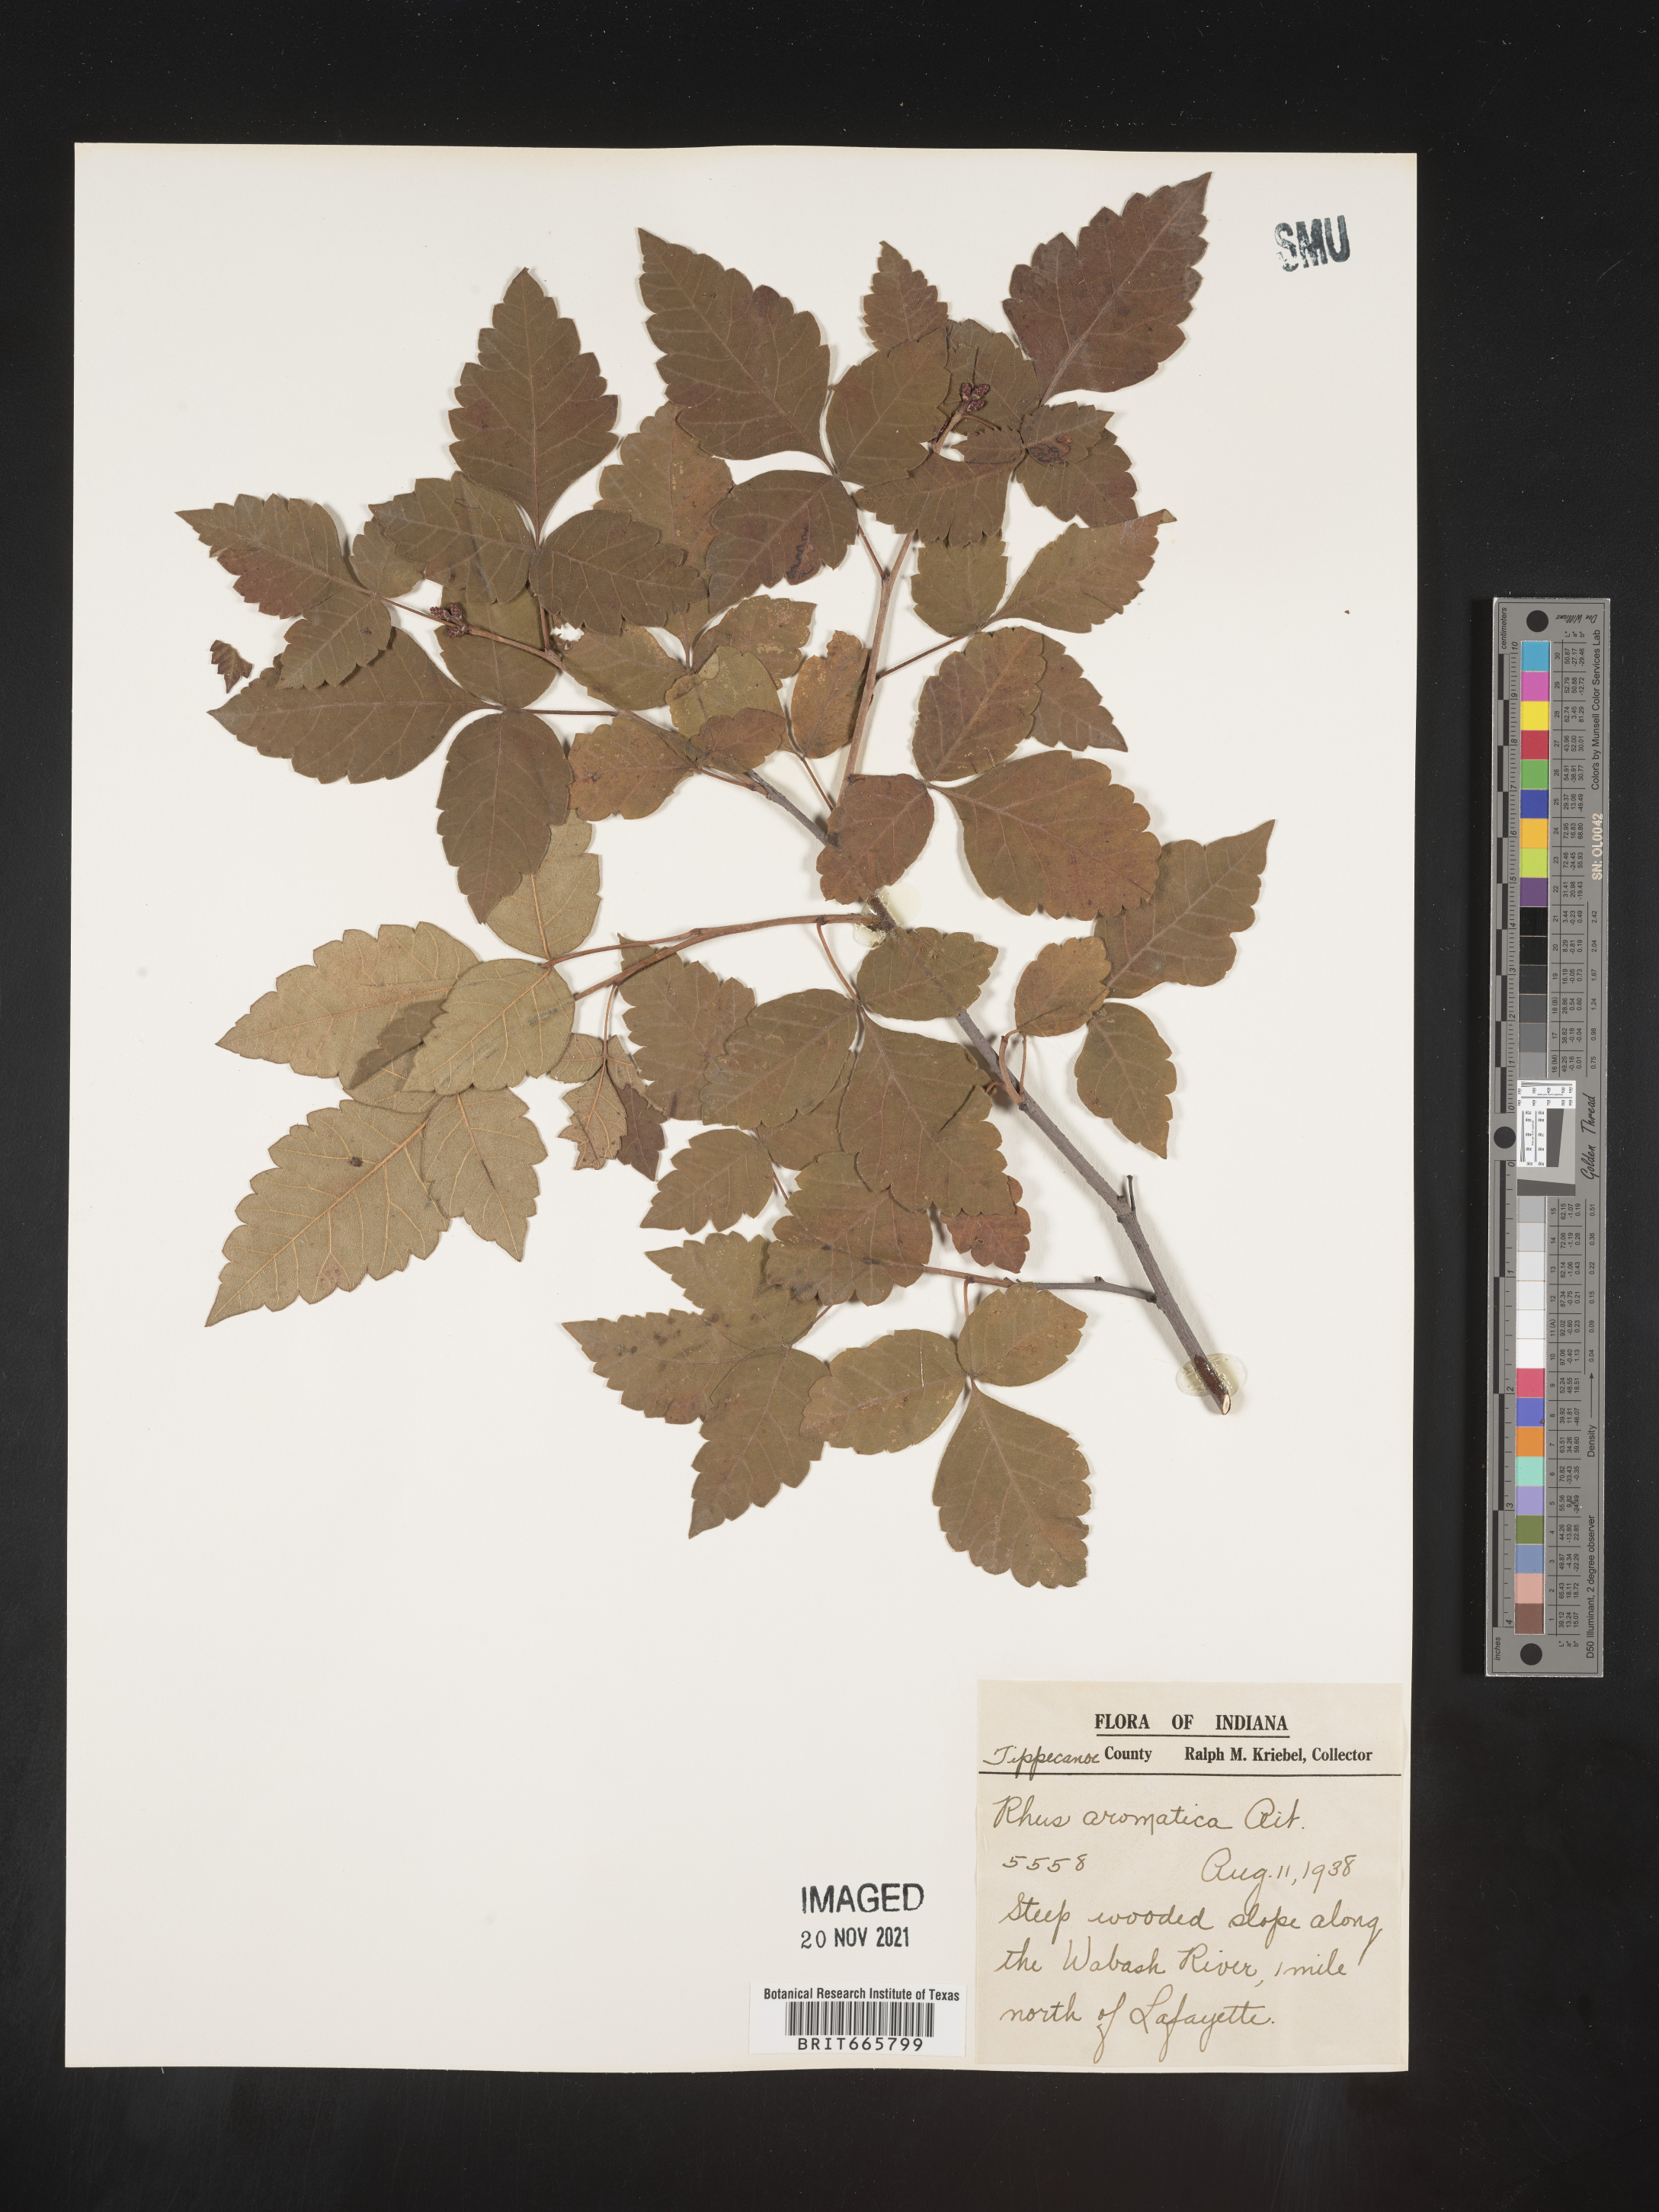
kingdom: Plantae
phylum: Tracheophyta
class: Magnoliopsida
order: Sapindales
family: Anacardiaceae
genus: Rhus
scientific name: Rhus aromatica
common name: Aromatic sumac
